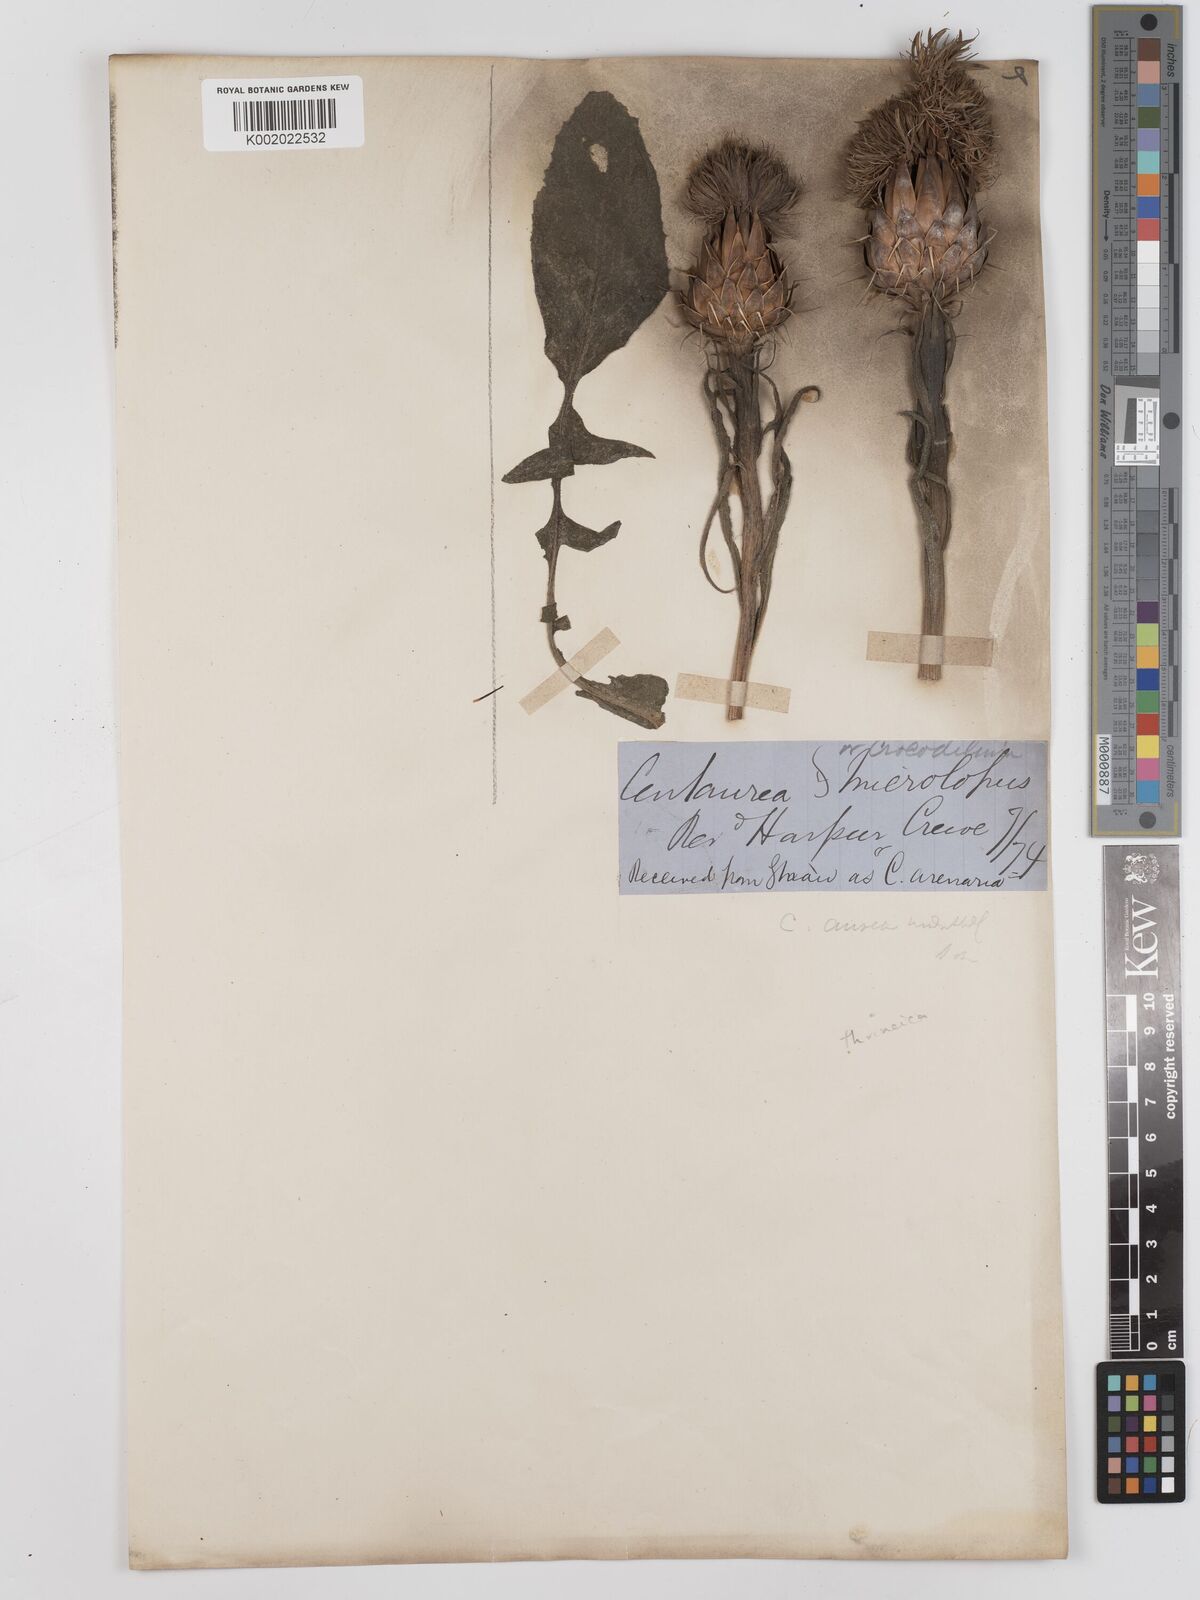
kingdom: Plantae
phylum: Tracheophyta
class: Magnoliopsida
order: Asterales
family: Asteraceae
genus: Centaurea
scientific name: Centaurea thracica
